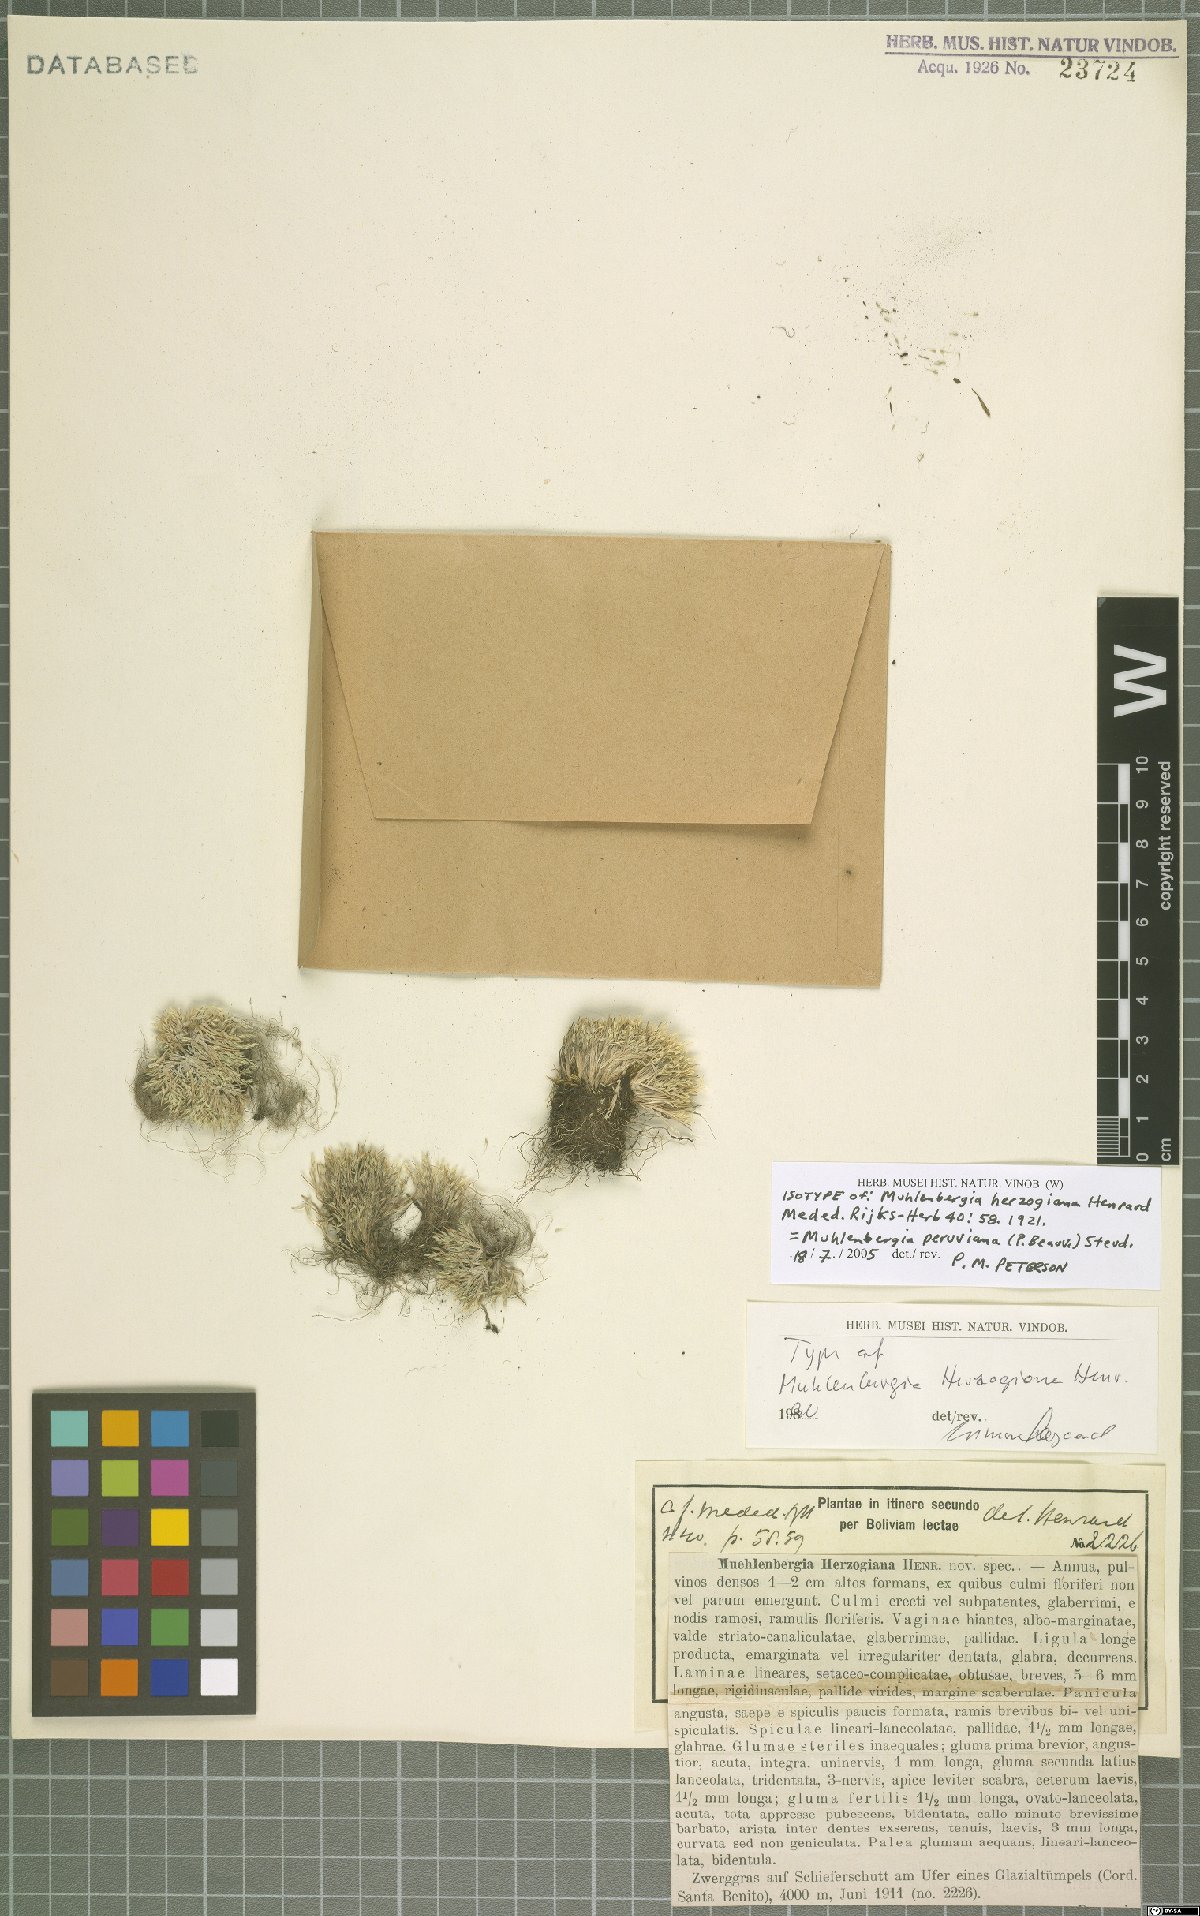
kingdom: Plantae
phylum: Tracheophyta
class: Liliopsida
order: Poales
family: Poaceae
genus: Muhlenbergia
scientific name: Muhlenbergia peruviana
